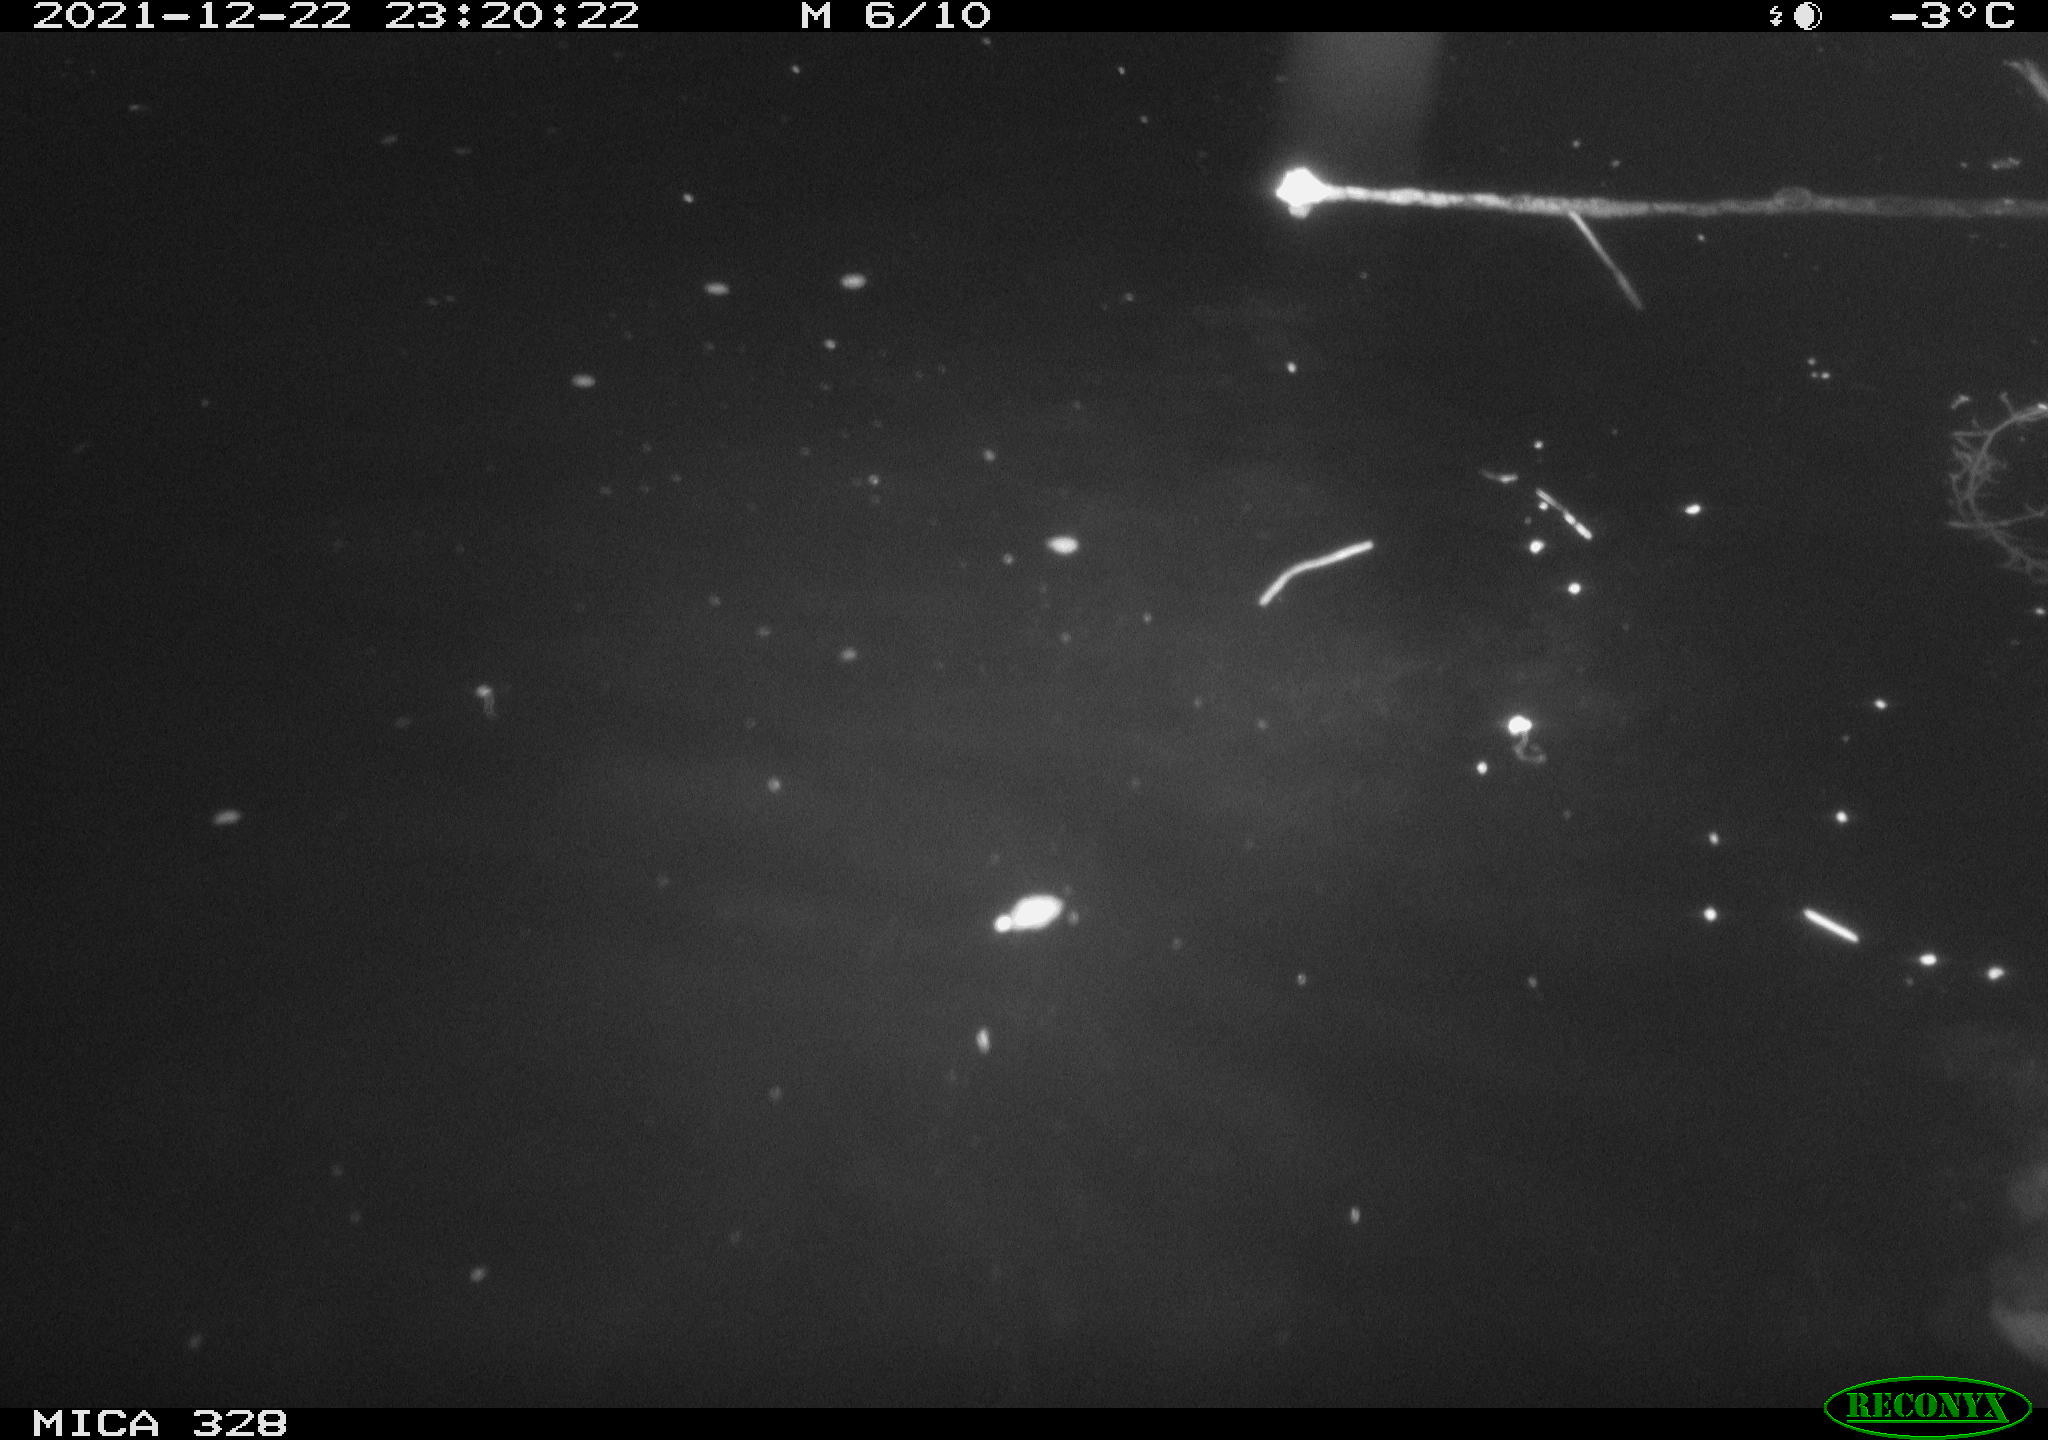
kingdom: Animalia
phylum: Chordata
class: Aves
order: Anseriformes
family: Anatidae
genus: Anas
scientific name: Anas platyrhynchos
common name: Mallard
